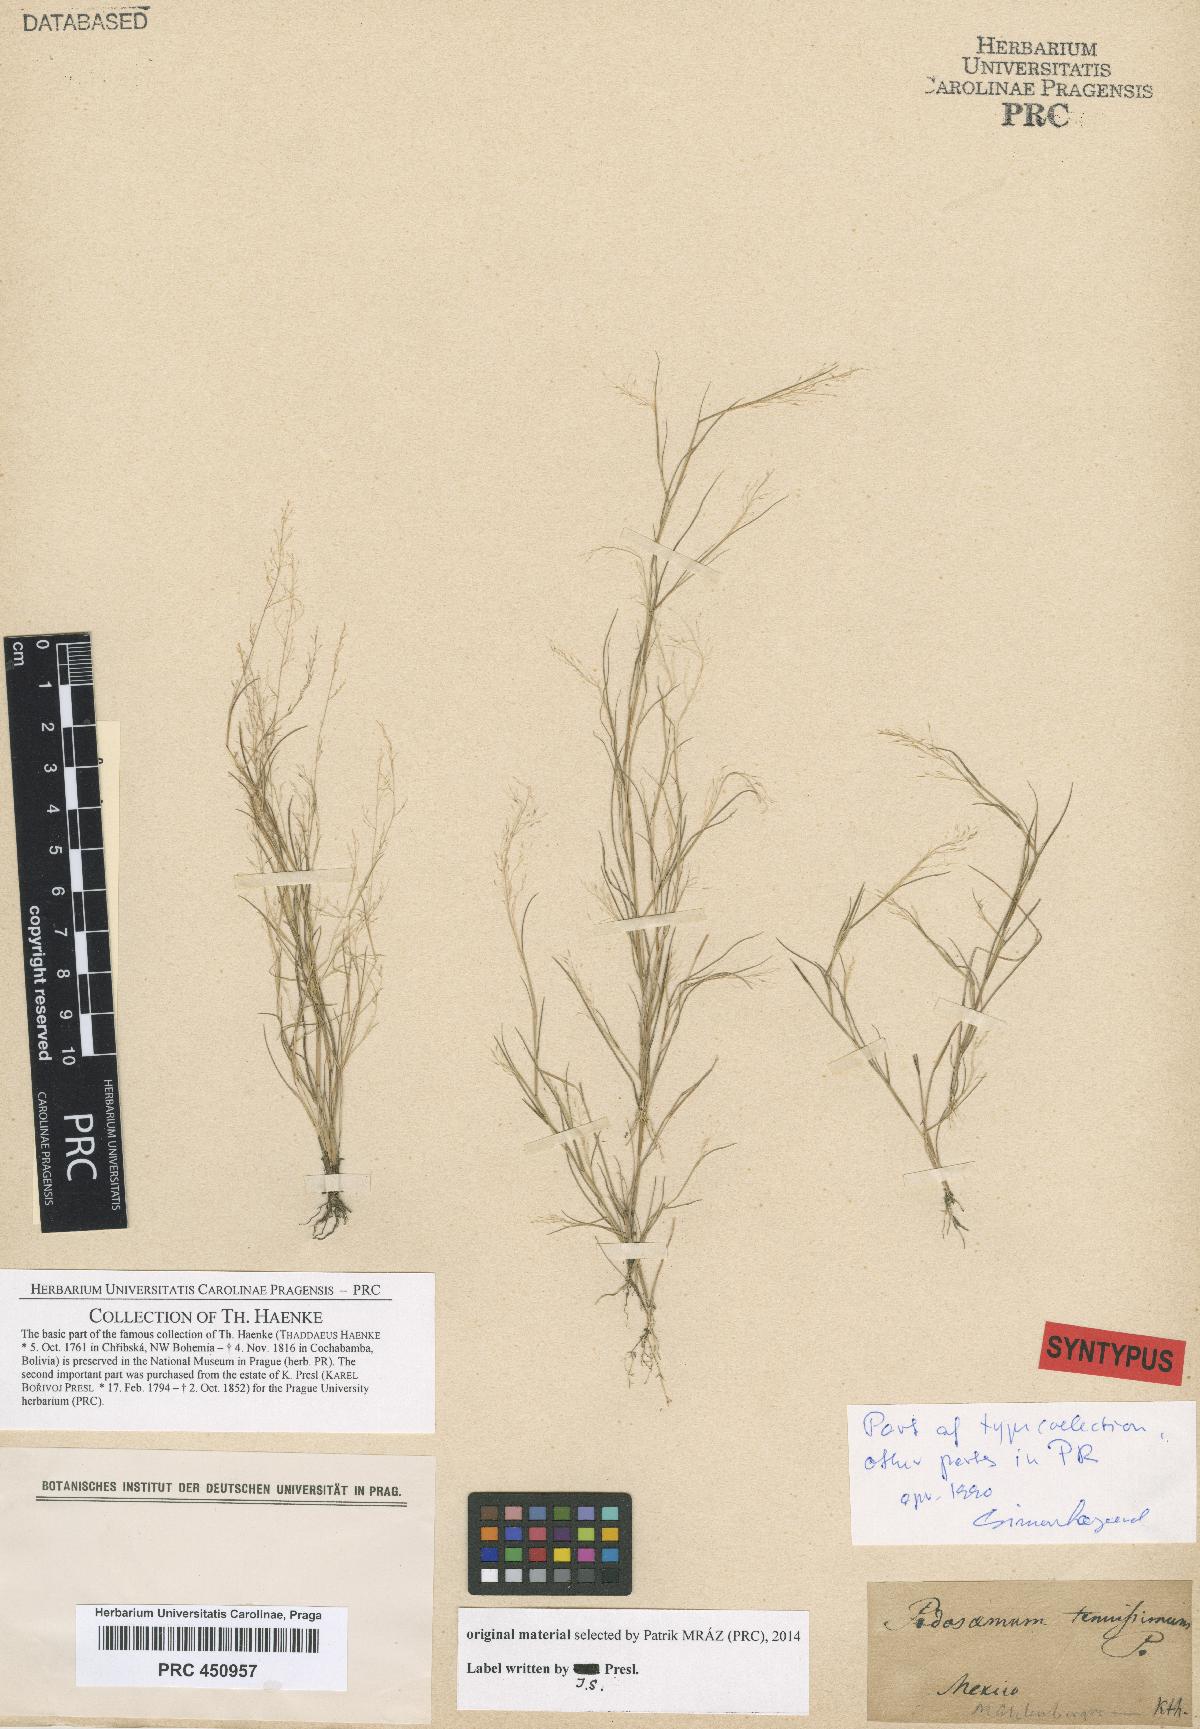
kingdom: Plantae
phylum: Tracheophyta
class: Liliopsida
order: Poales
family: Poaceae
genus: Muhlenbergia
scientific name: Muhlenbergia tenuissima
